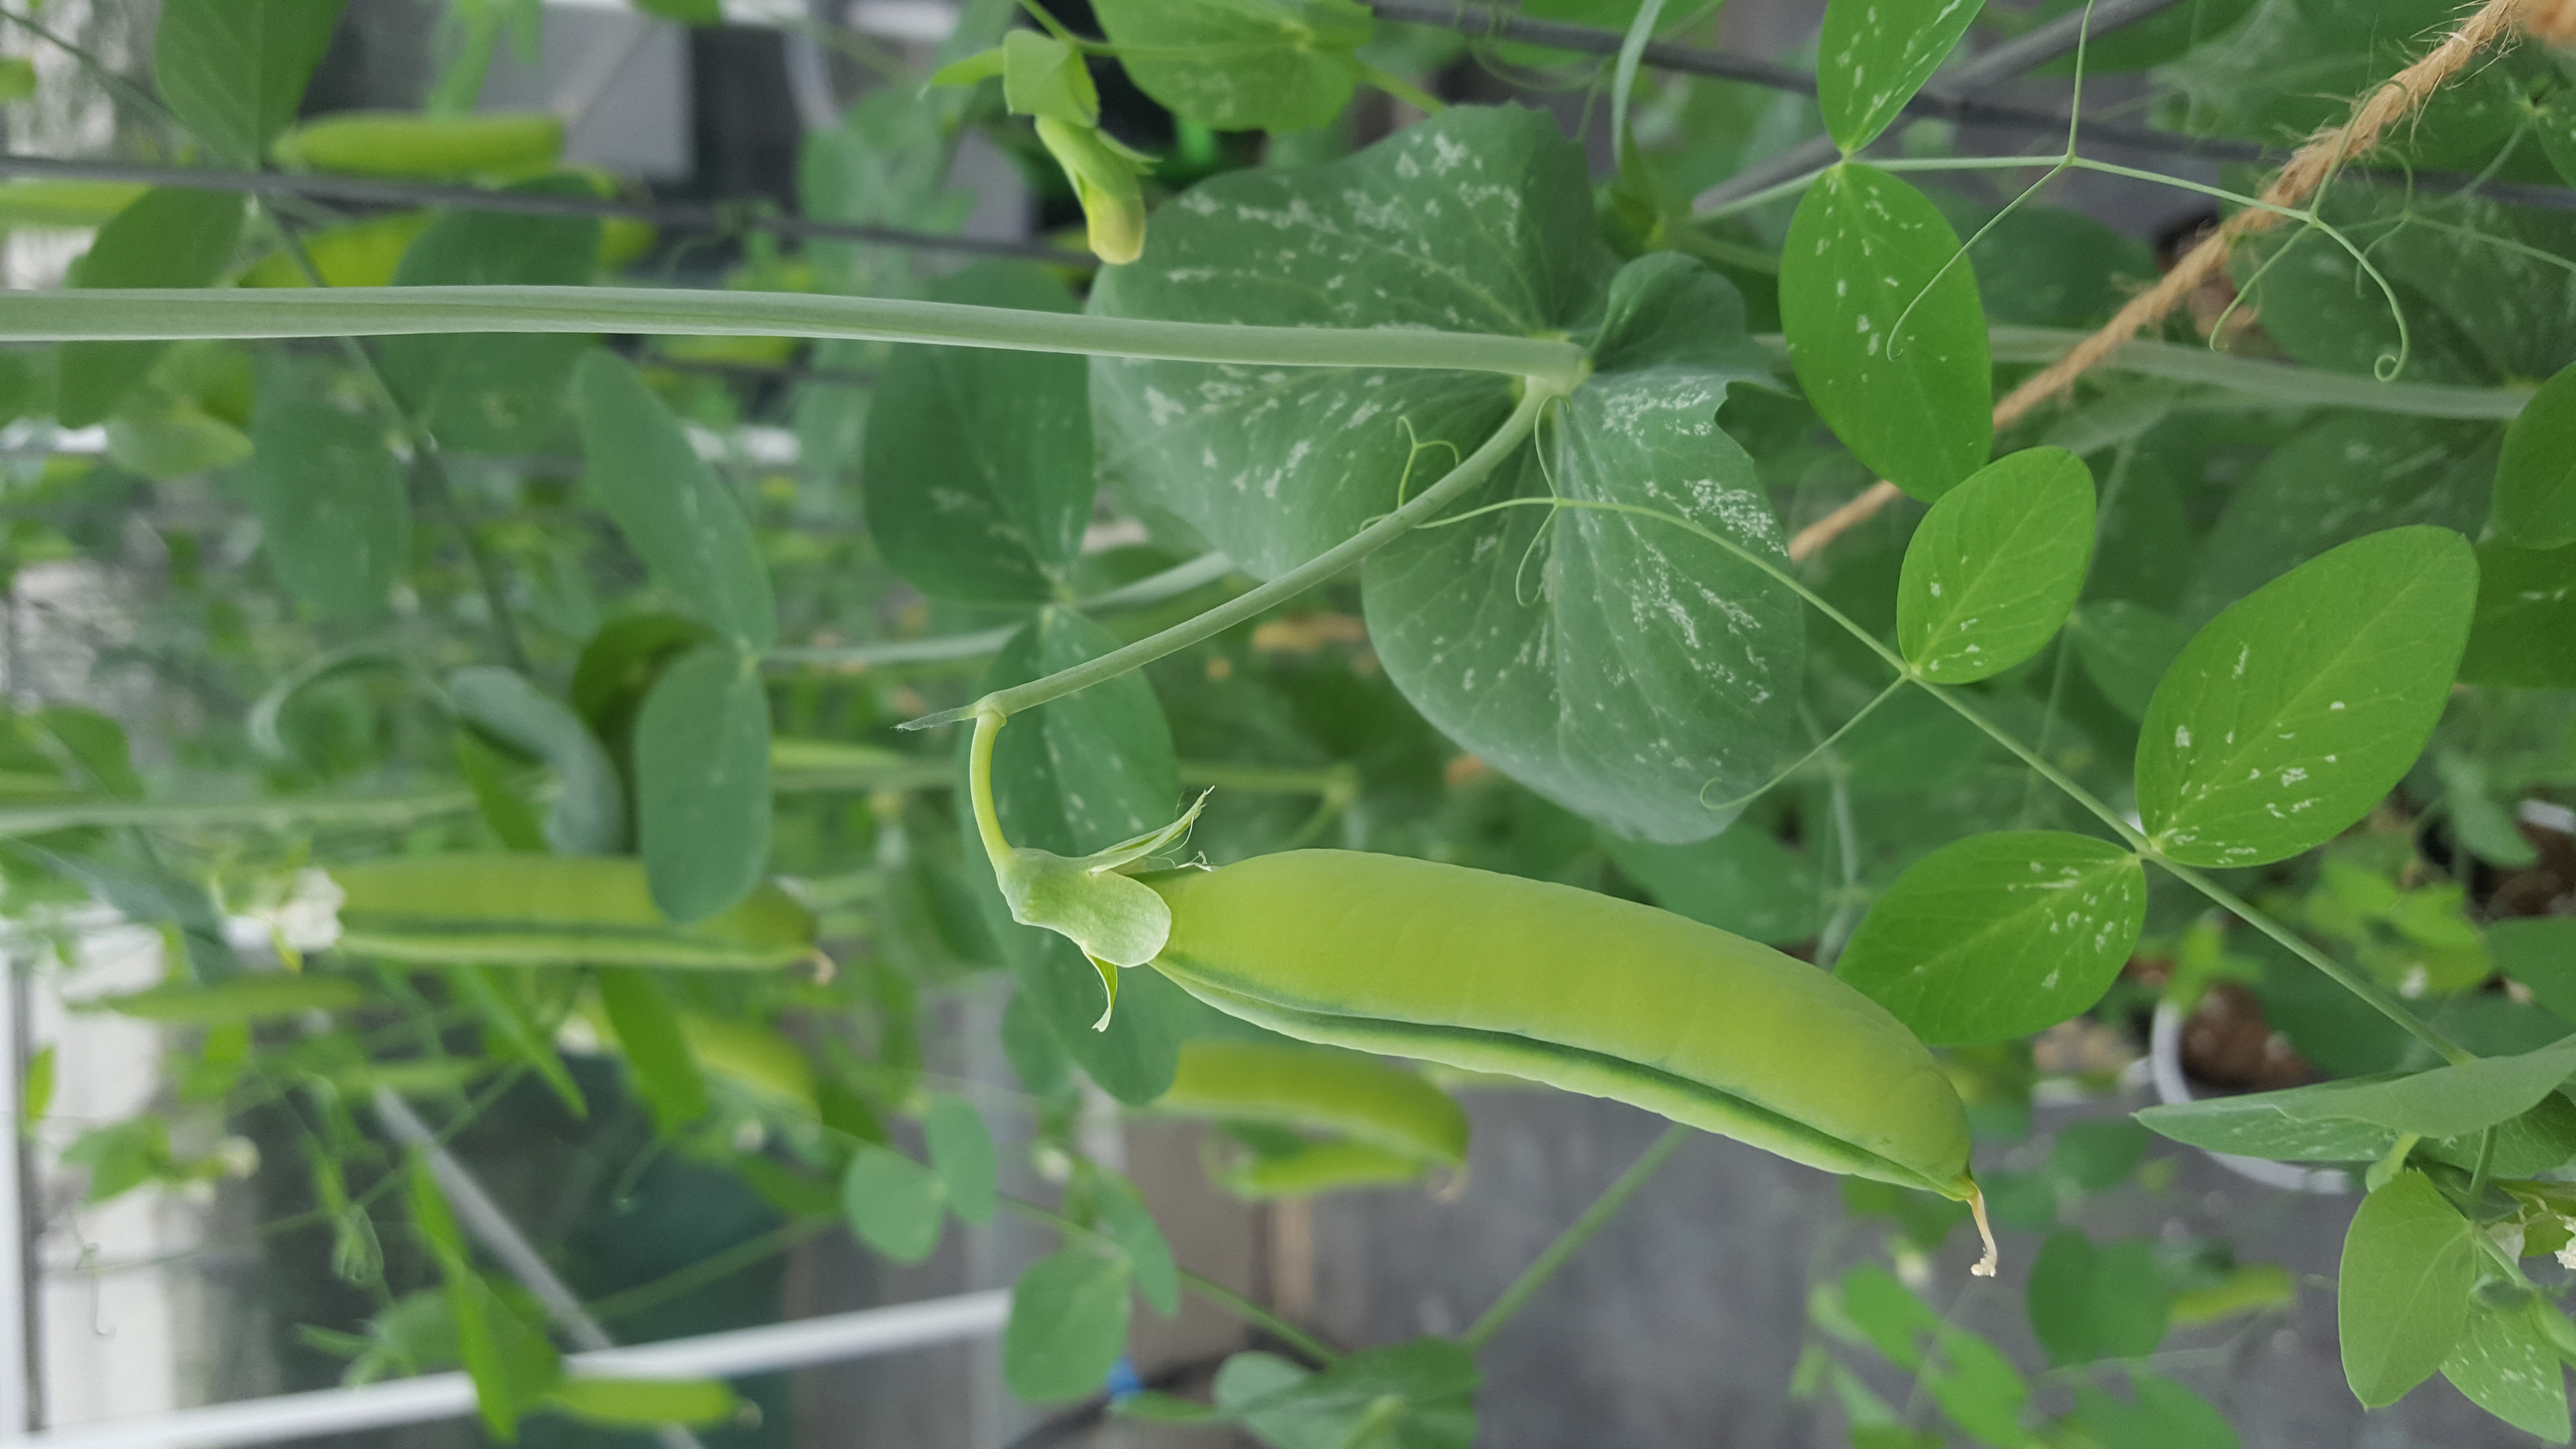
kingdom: Plantae
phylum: Tracheophyta
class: Magnoliopsida
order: Fabales
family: Fabaceae
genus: Lathyrus
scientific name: Lathyrus oleraceus
